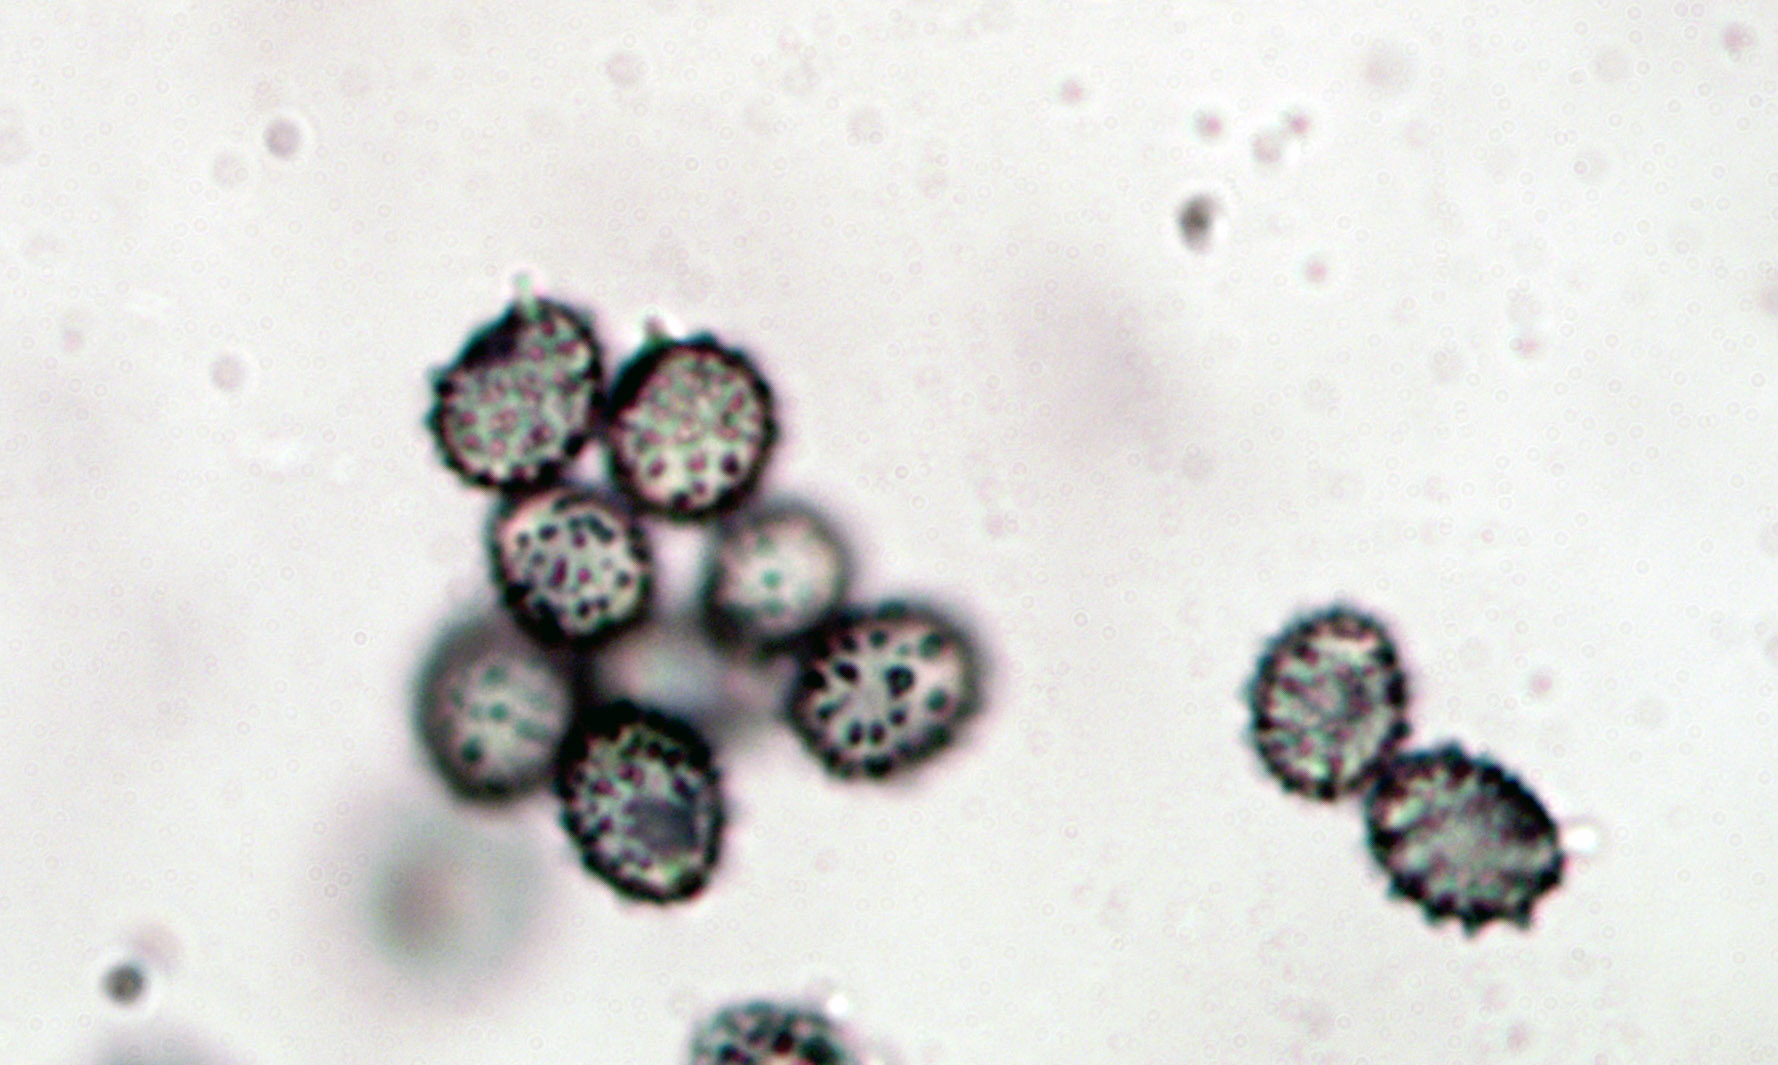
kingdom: Fungi
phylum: Basidiomycota
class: Agaricomycetes
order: Russulales
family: Russulaceae
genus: Russula
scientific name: Russula velenovskyi
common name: orangerød skørhat
